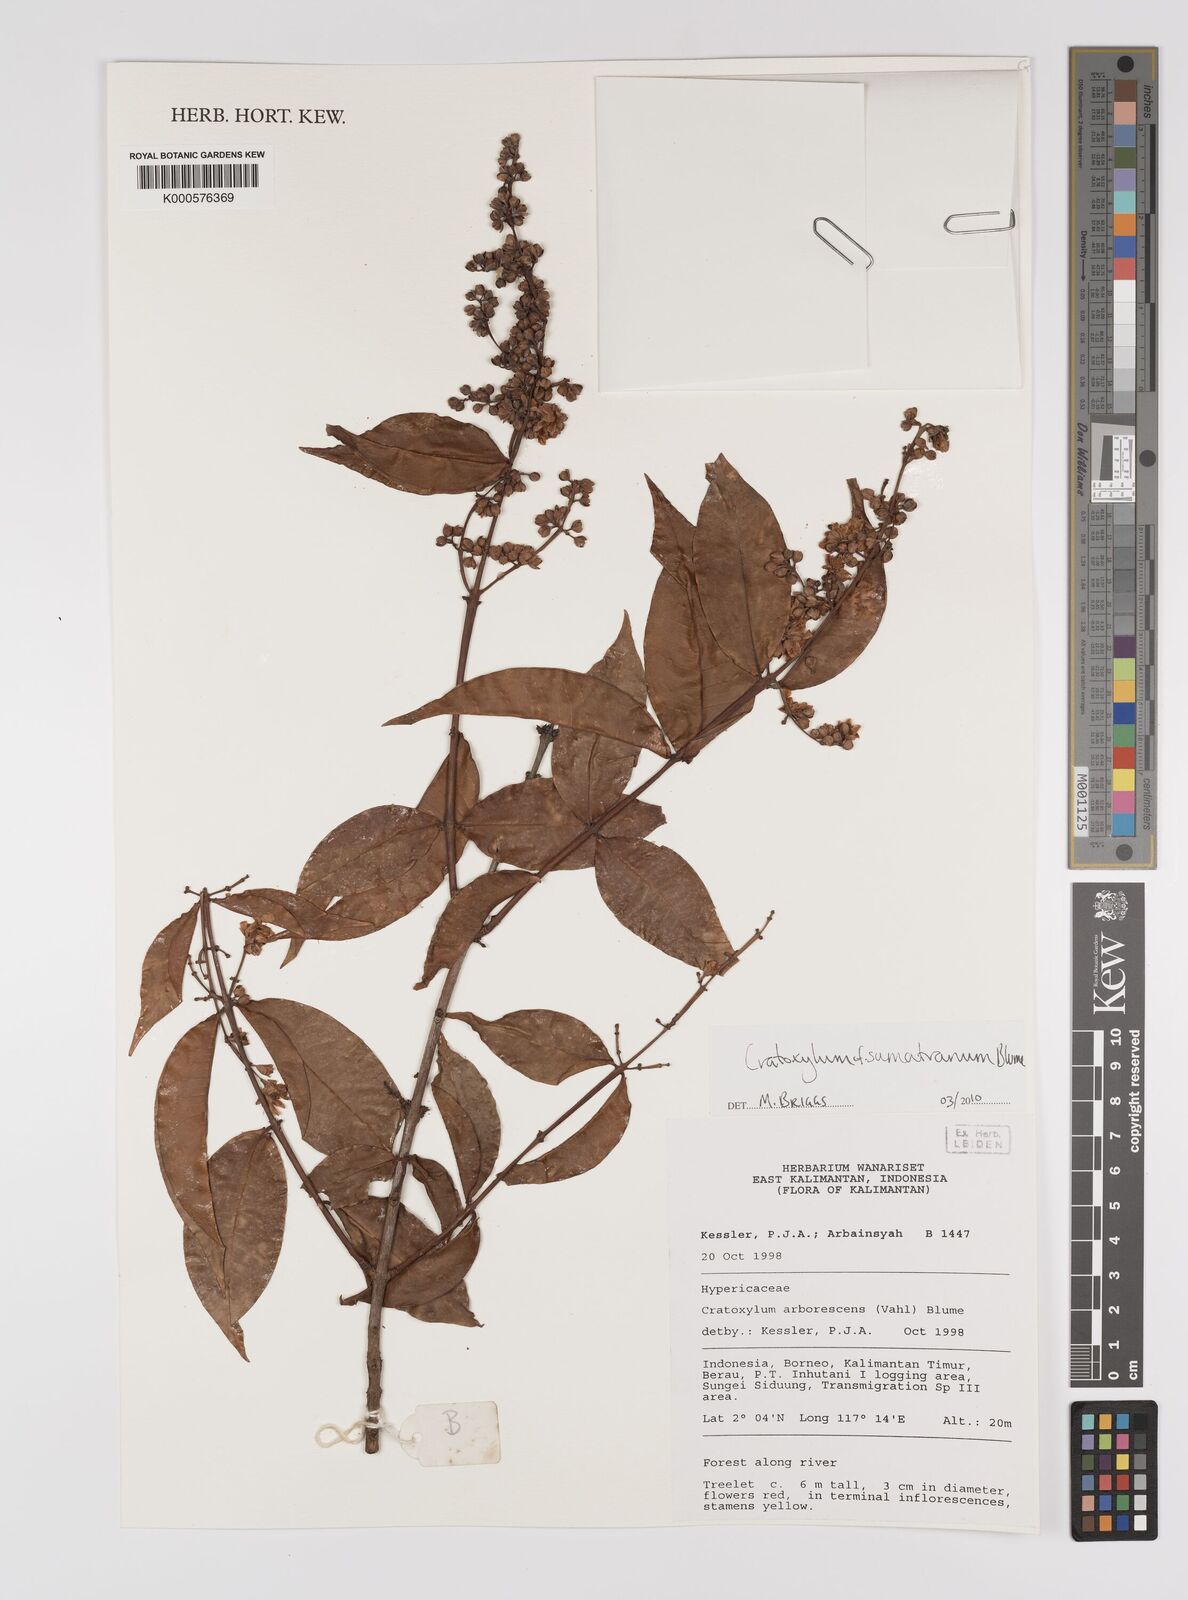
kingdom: Plantae
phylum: Tracheophyta
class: Magnoliopsida
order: Malpighiales
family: Hypericaceae
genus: Cratoxylum
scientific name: Cratoxylum sumatranum
